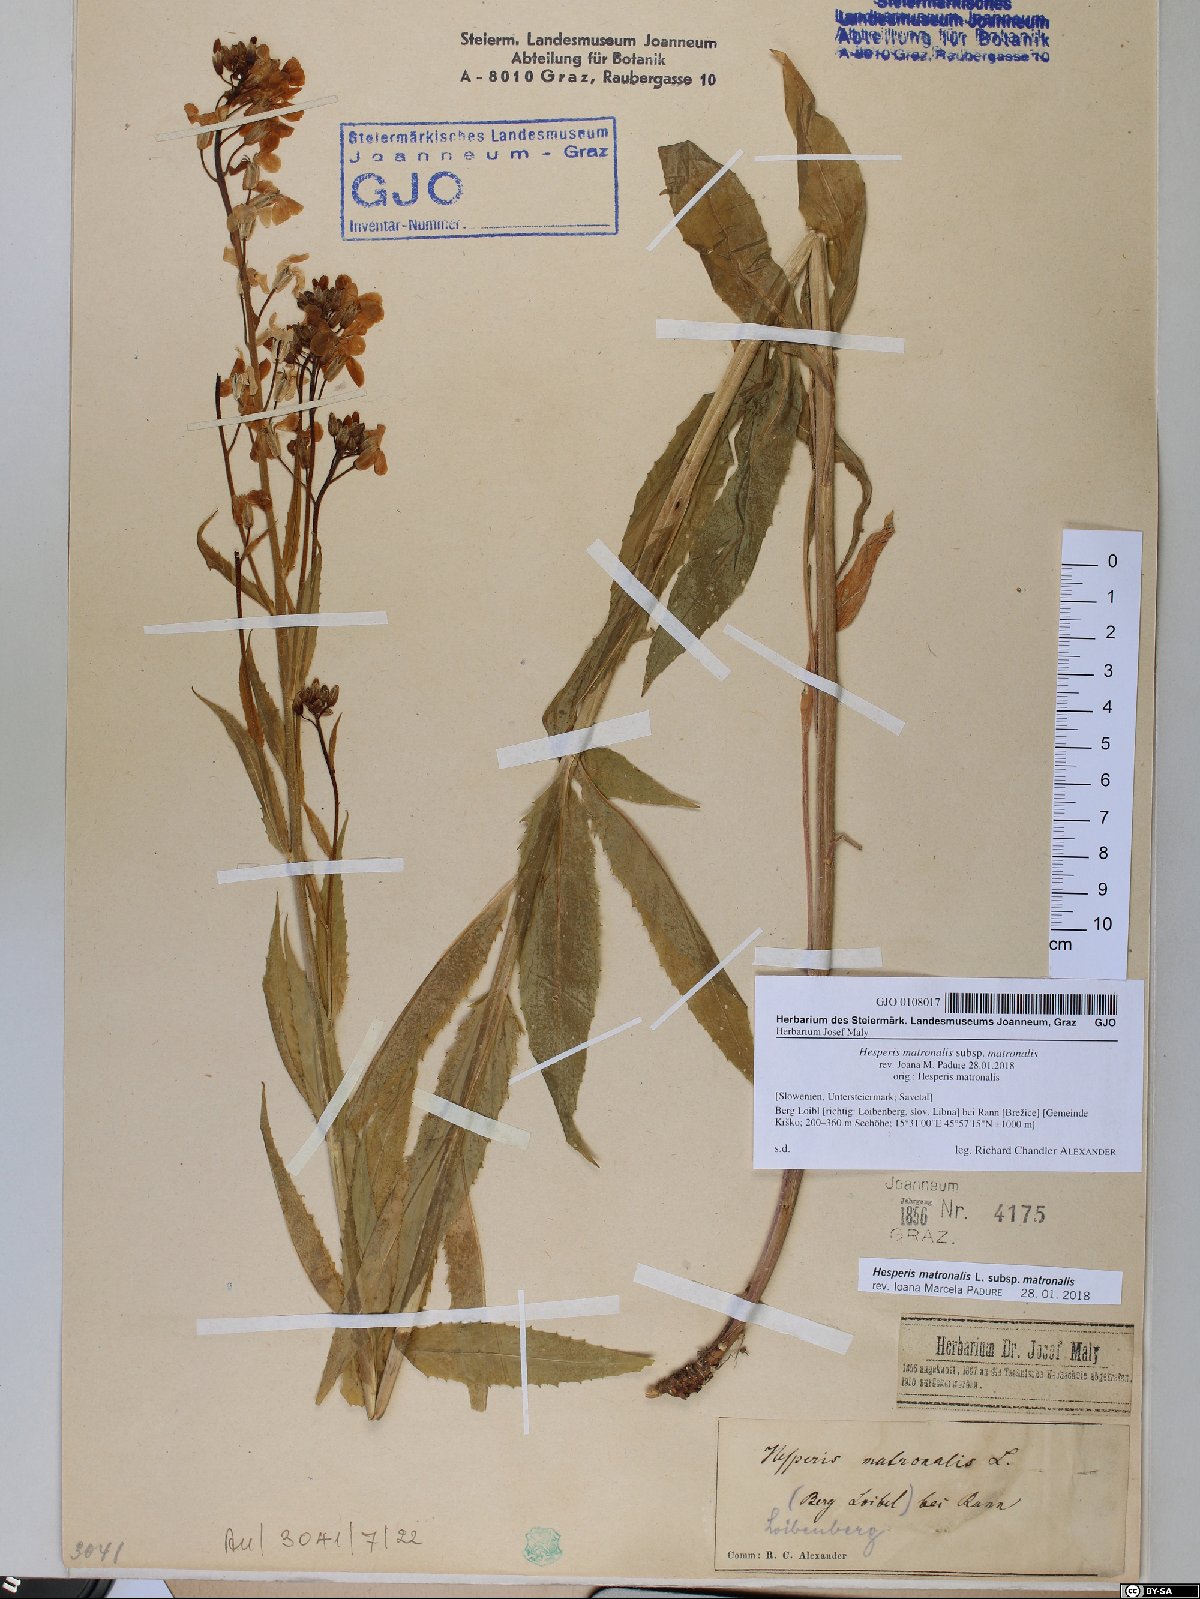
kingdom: Plantae
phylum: Tracheophyta
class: Magnoliopsida
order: Brassicales
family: Brassicaceae
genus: Hesperis
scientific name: Hesperis matronalis
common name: Dame's-violet
